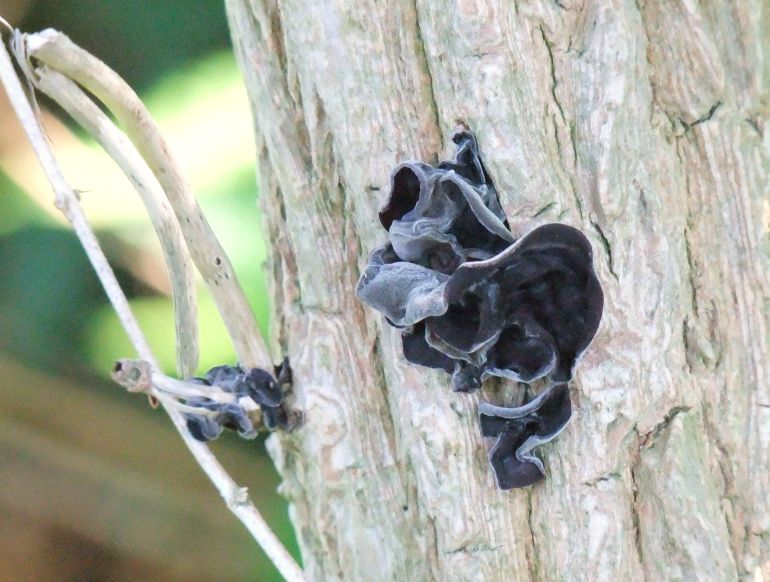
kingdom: Fungi
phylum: Basidiomycota
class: Agaricomycetes
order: Auriculariales
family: Auriculariaceae
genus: Auricularia
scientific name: Auricularia auricula-judae
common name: almindelig judasøre
